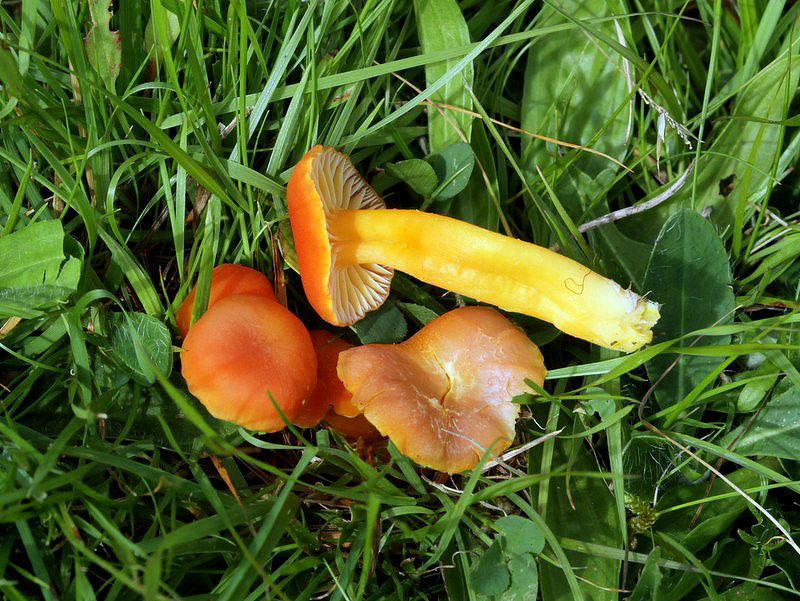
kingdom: Fungi
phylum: Basidiomycota
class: Agaricomycetes
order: Agaricales
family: Hygrophoraceae
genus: Hygrocybe
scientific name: Hygrocybe reidii
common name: honning-vokshat
